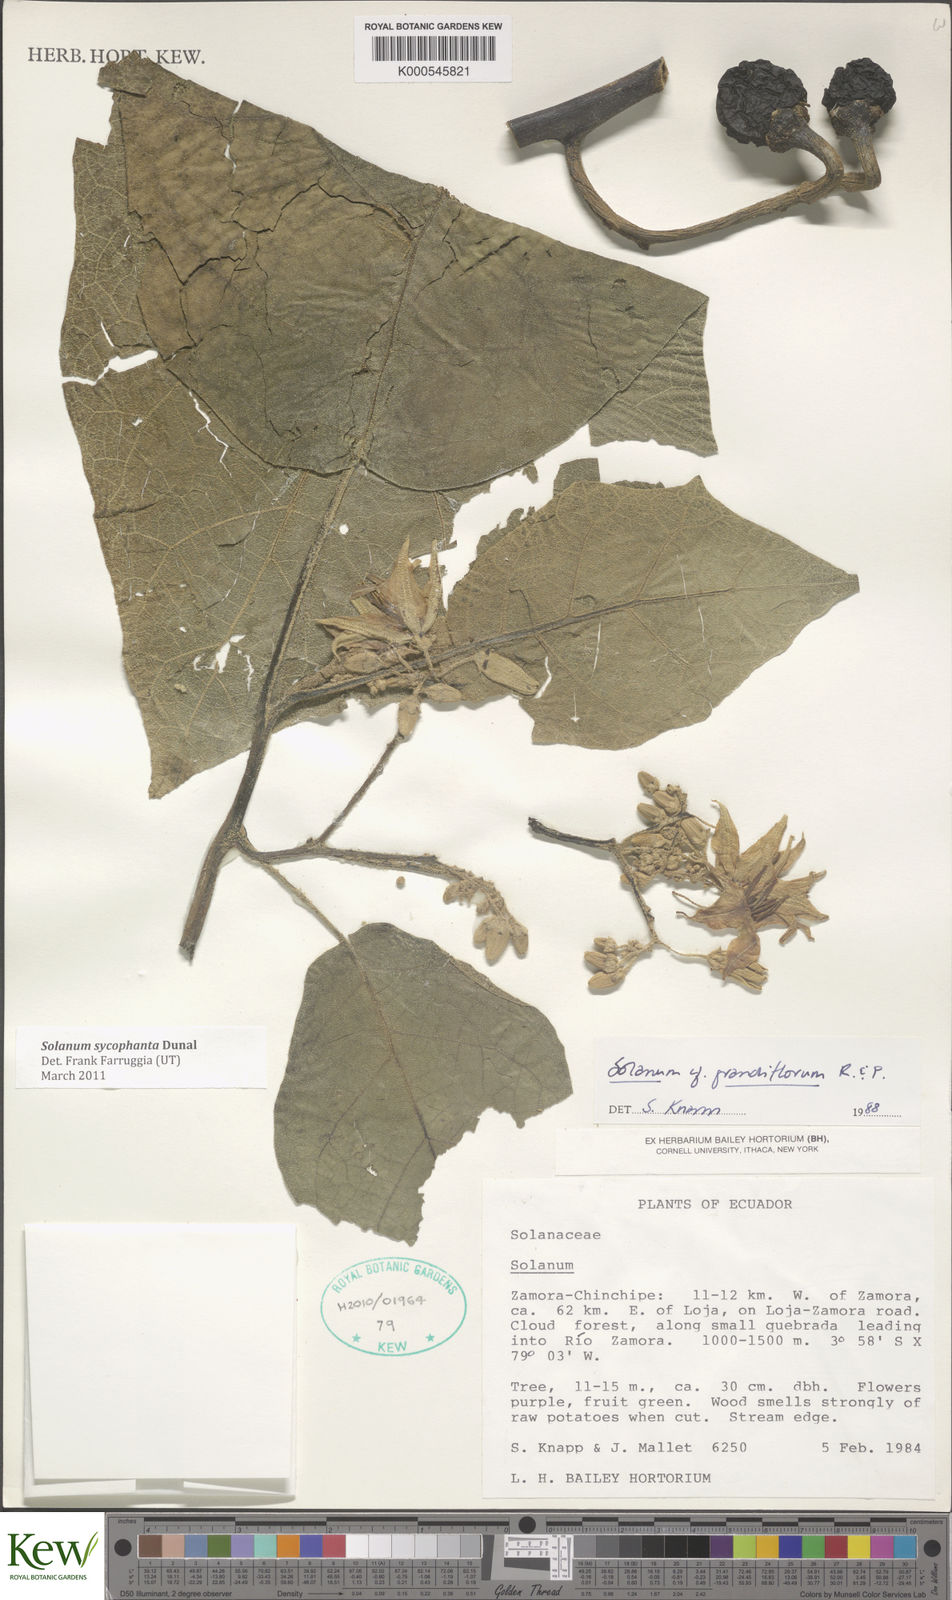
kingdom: Plantae
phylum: Tracheophyta
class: Magnoliopsida
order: Solanales
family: Solanaceae
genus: Solanum
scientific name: Solanum sycophanta
